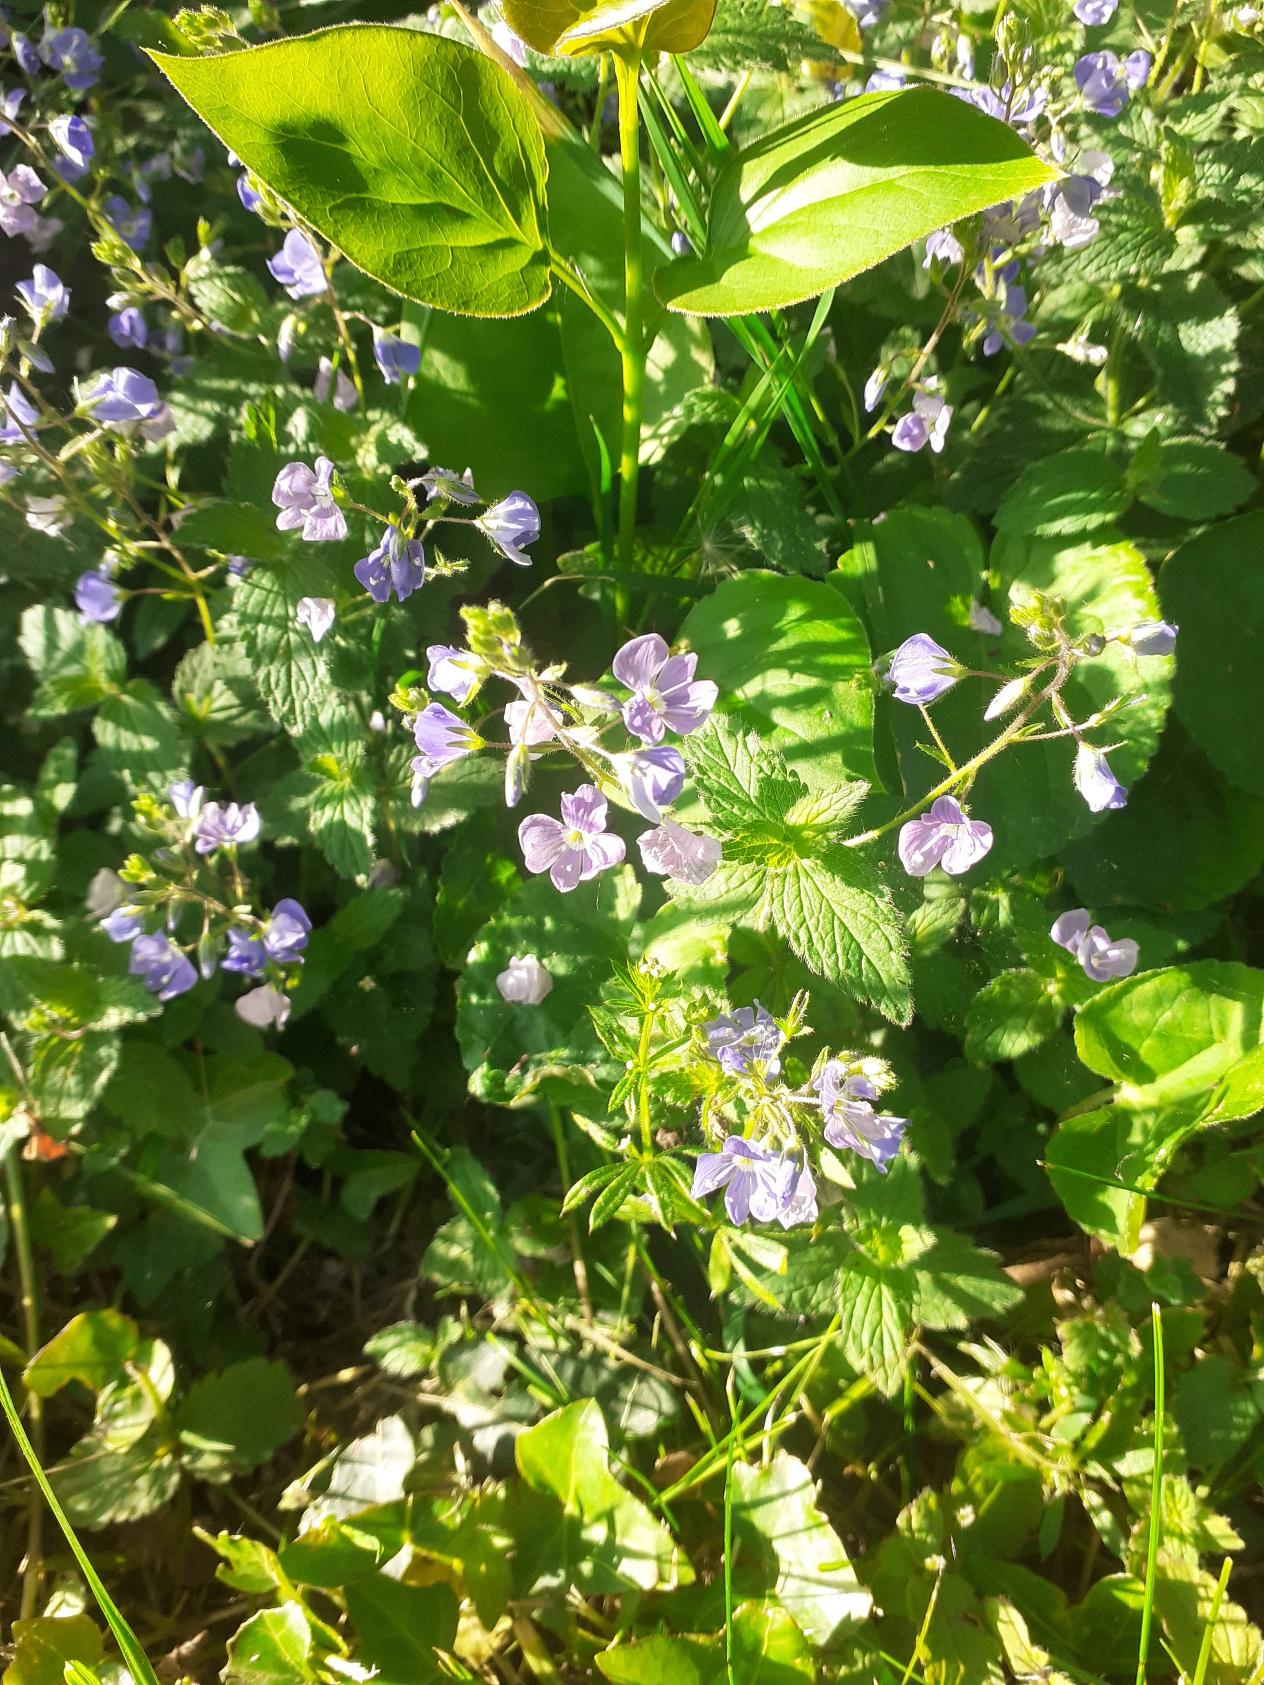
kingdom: Plantae
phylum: Tracheophyta
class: Magnoliopsida
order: Lamiales
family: Plantaginaceae
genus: Veronica
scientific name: Veronica chamaedrys
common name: Tveskægget ærenpris
